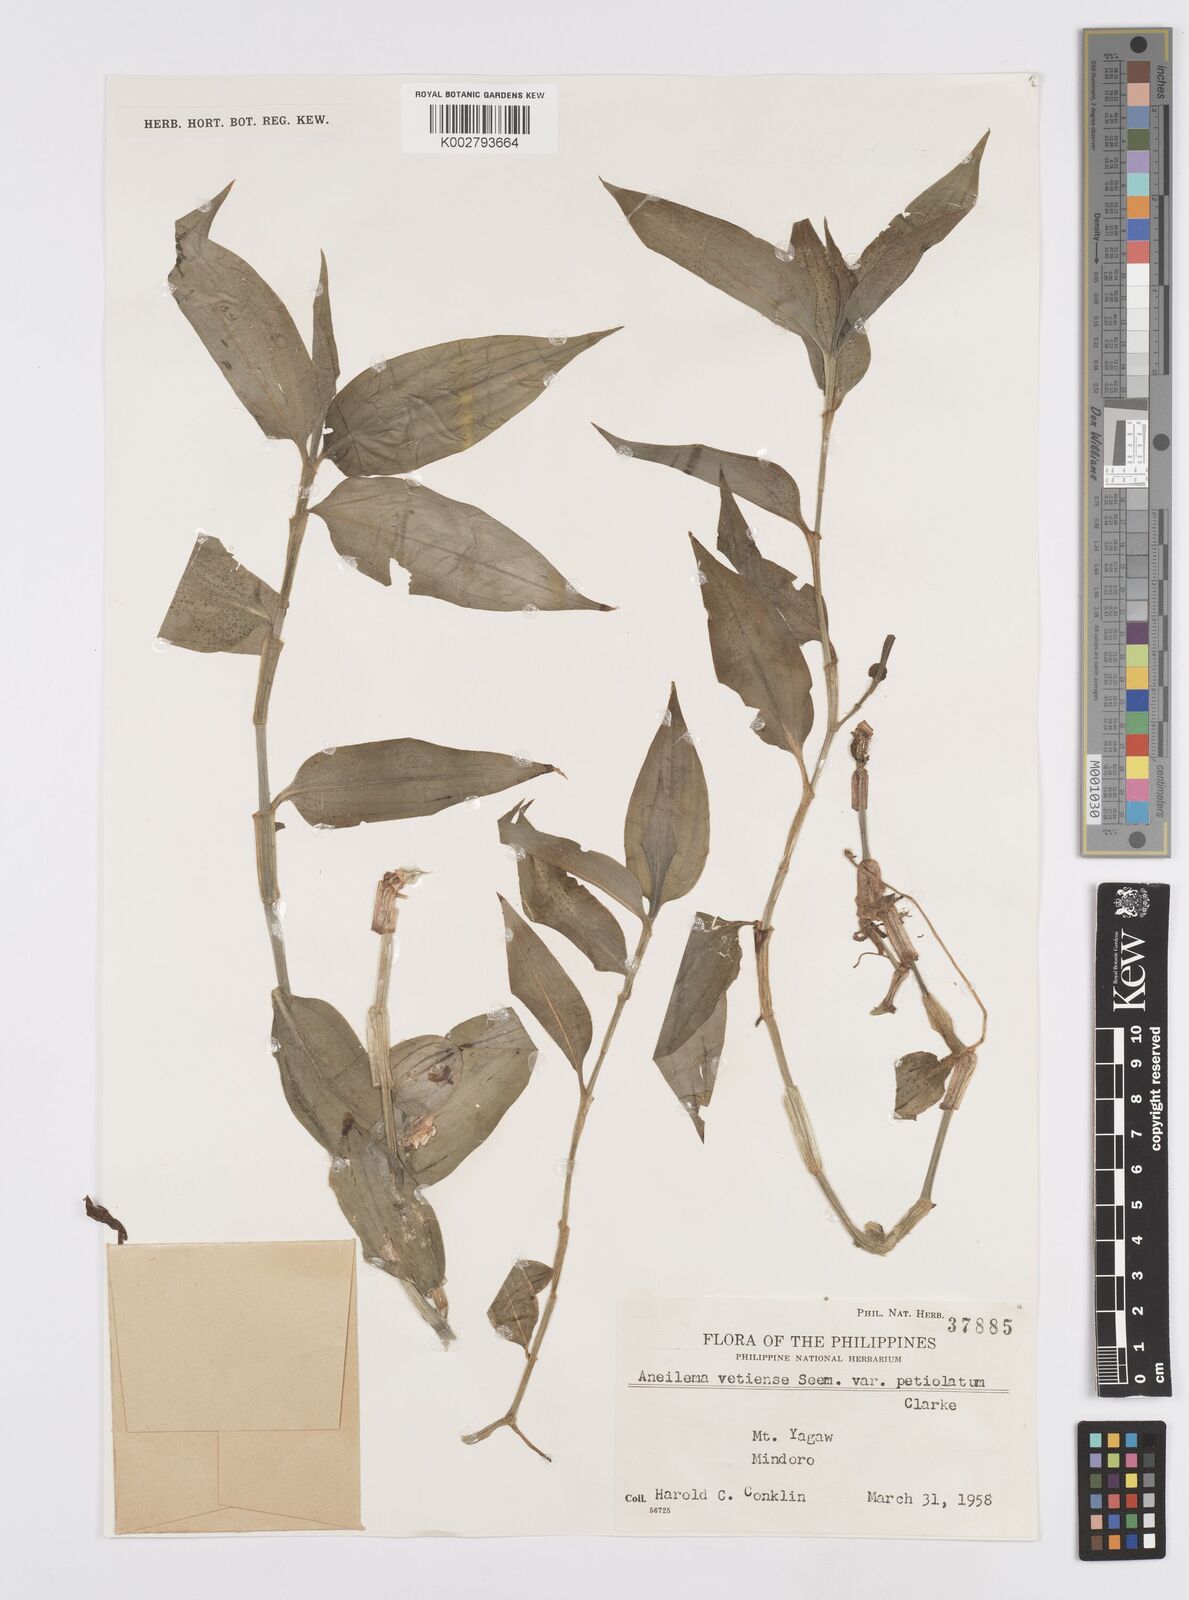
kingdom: Plantae
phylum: Tracheophyta
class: Liliopsida
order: Commelinales
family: Commelinaceae
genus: Murdannia
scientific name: Murdannia
